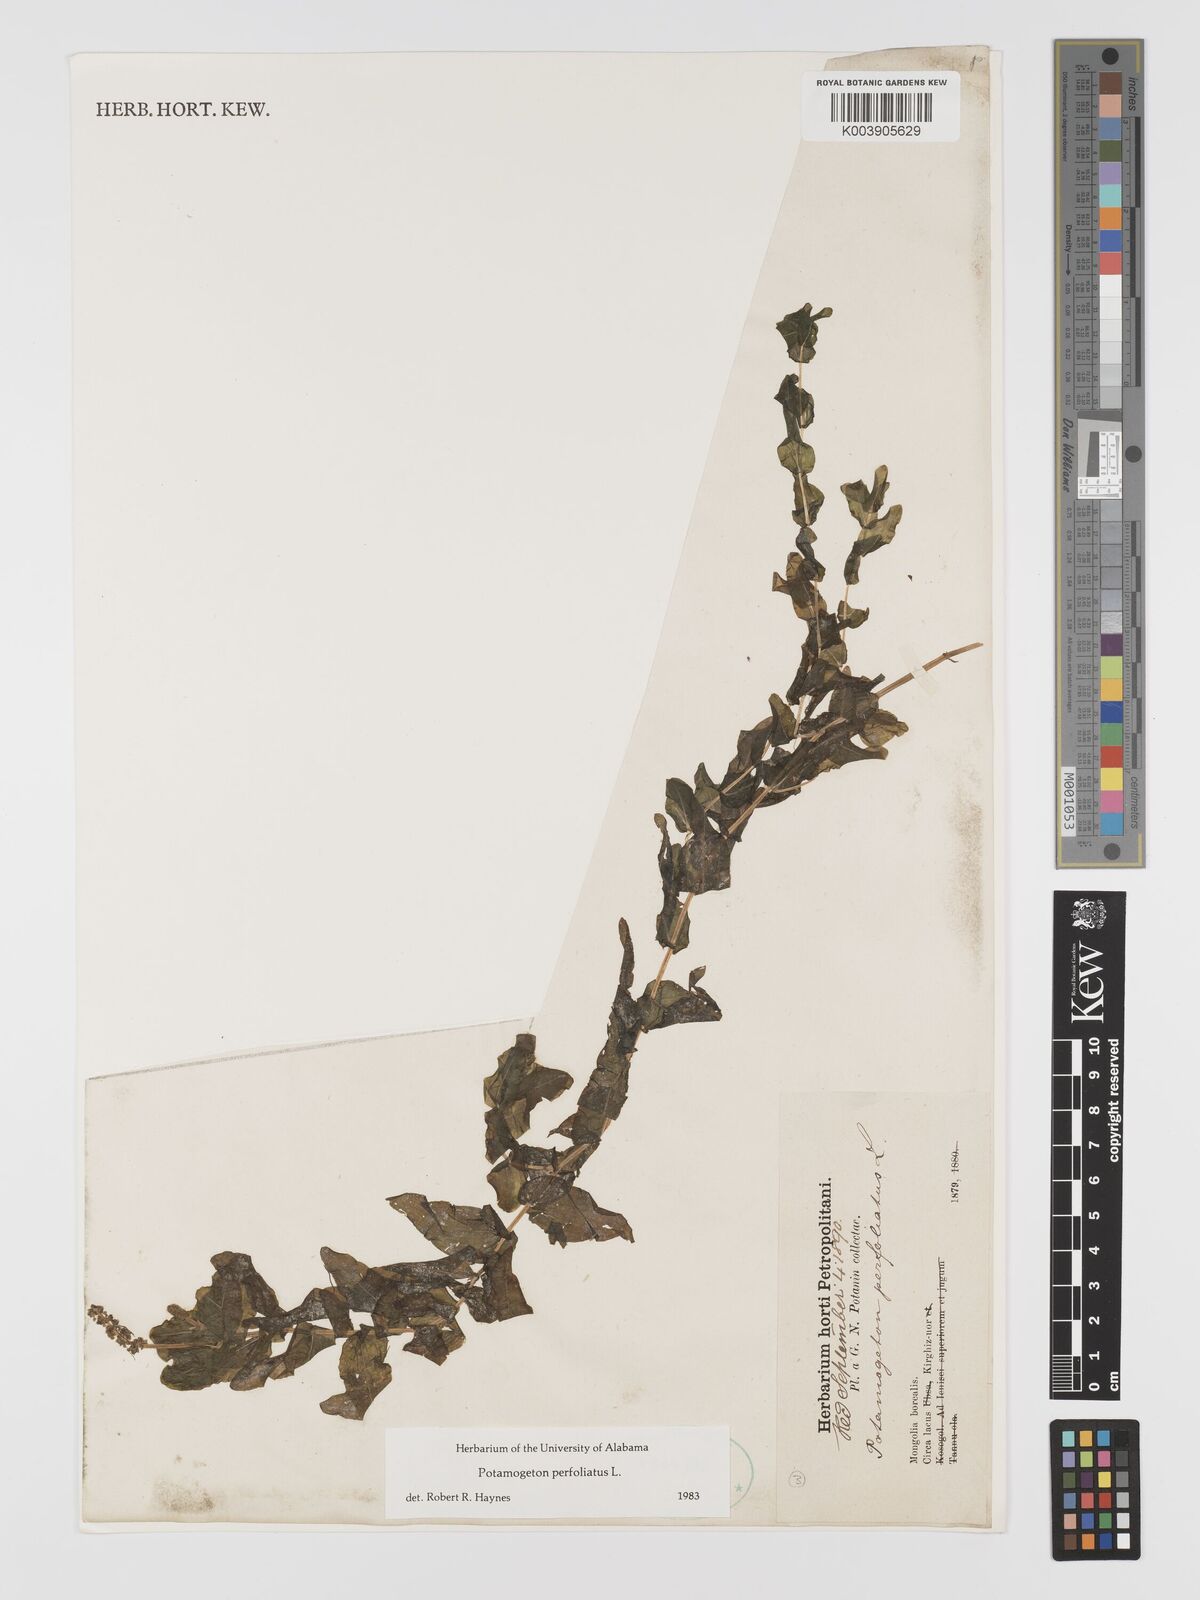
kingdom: Plantae
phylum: Tracheophyta
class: Liliopsida
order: Alismatales
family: Potamogetonaceae
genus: Potamogeton
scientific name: Potamogeton perfoliatus
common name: Perfoliate pondweed
